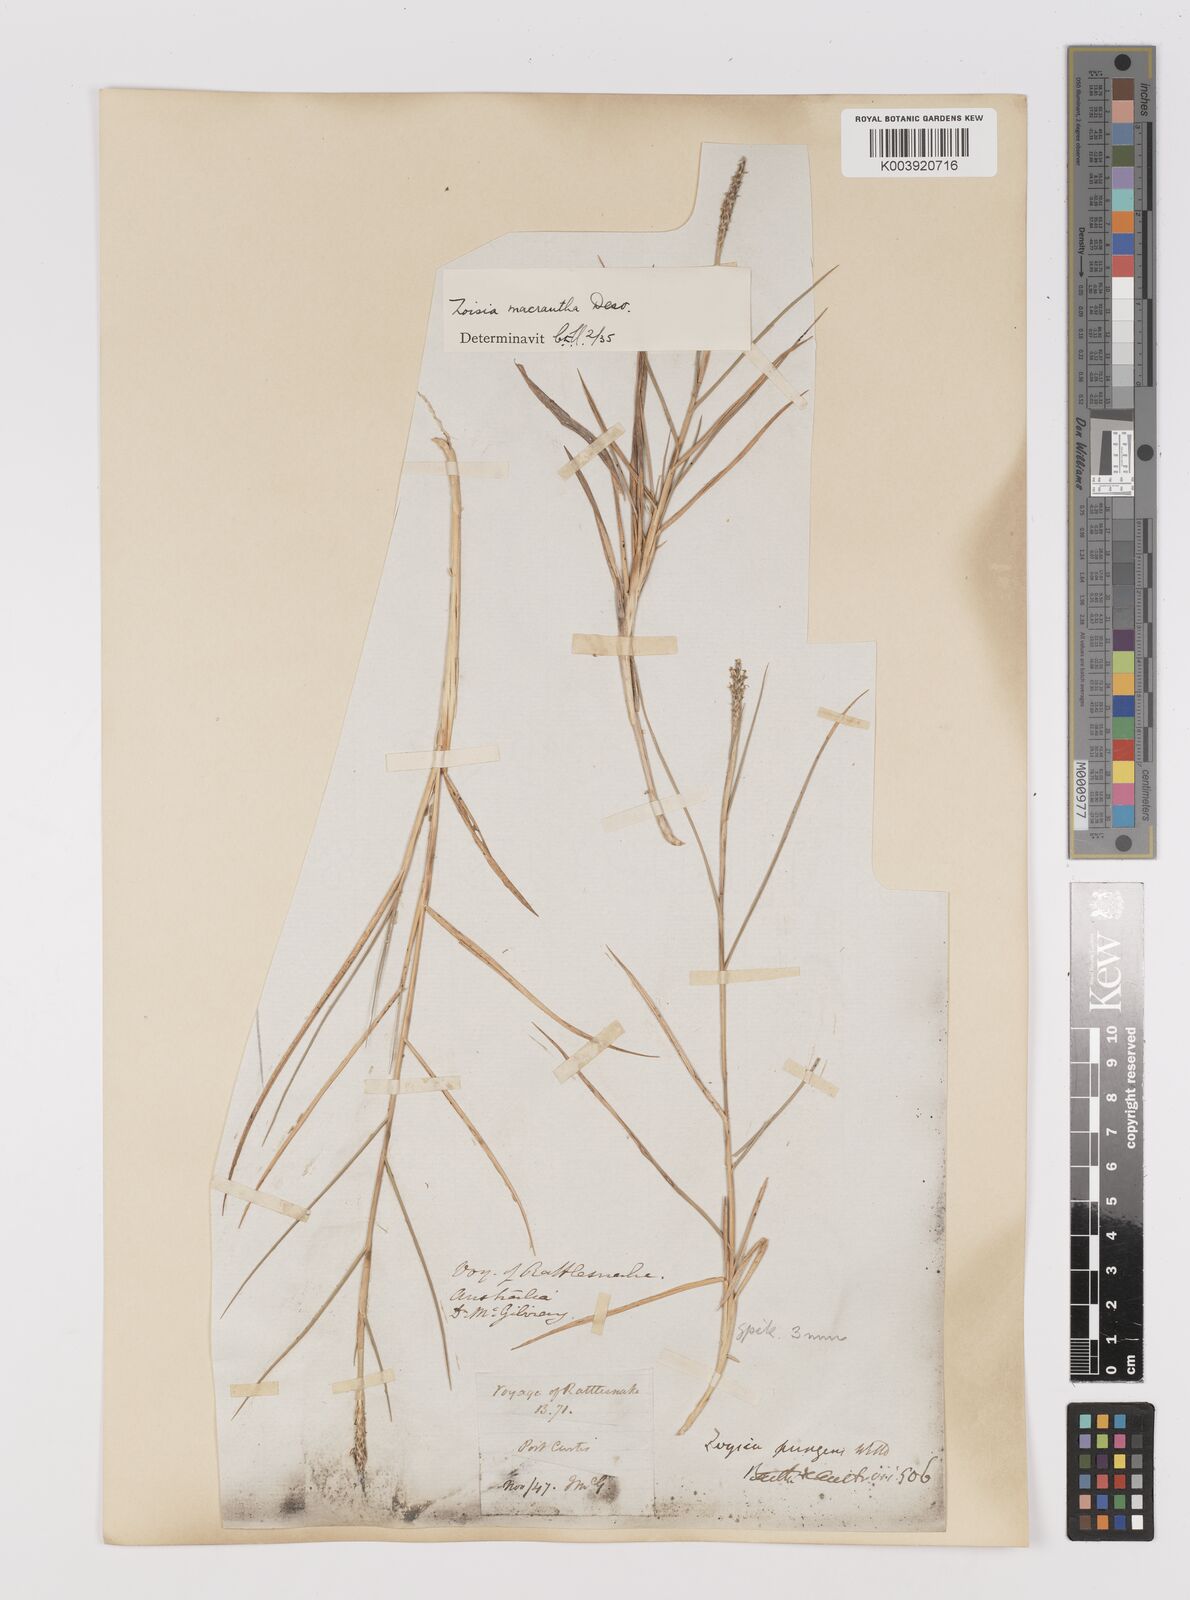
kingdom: Plantae
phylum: Tracheophyta
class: Liliopsida
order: Poales
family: Poaceae
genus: Zoysia
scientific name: Zoysia macrantha
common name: Korean lawn grass
